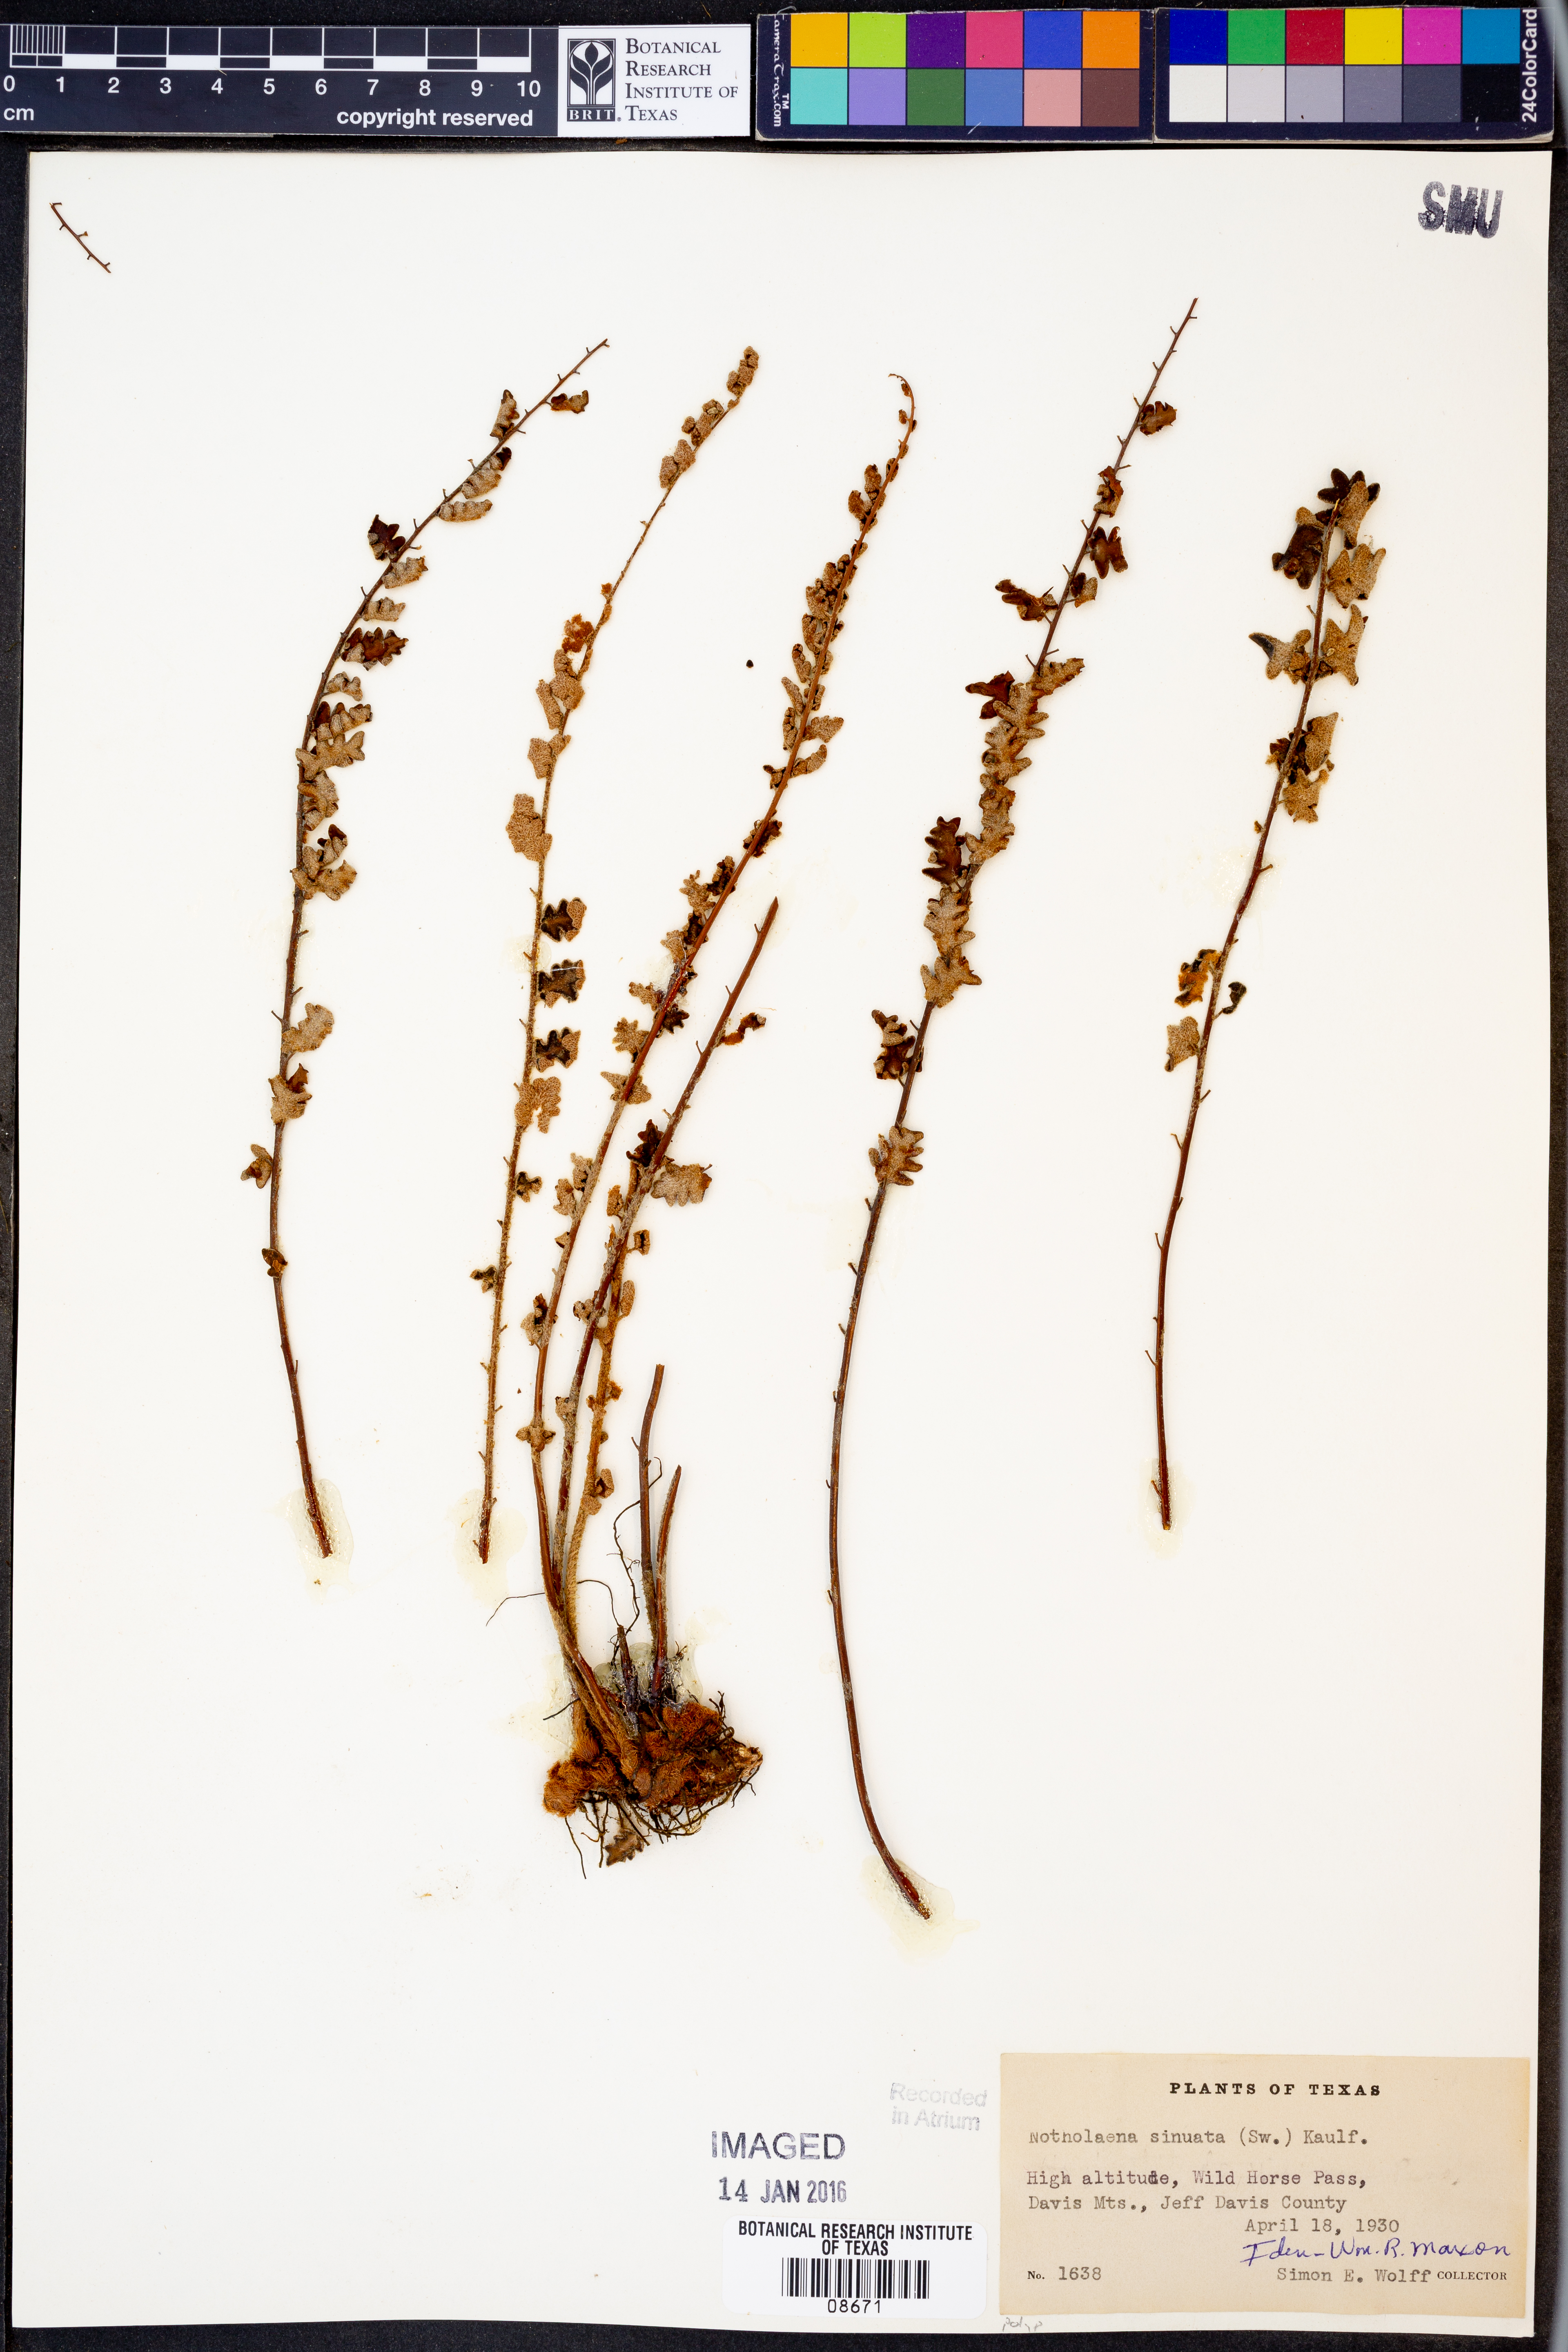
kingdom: Plantae
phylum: Tracheophyta
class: Polypodiopsida
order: Polypodiales
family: Pteridaceae
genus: Astrolepis
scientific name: Astrolepis sinuata
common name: Wavy scaly cloakfern
